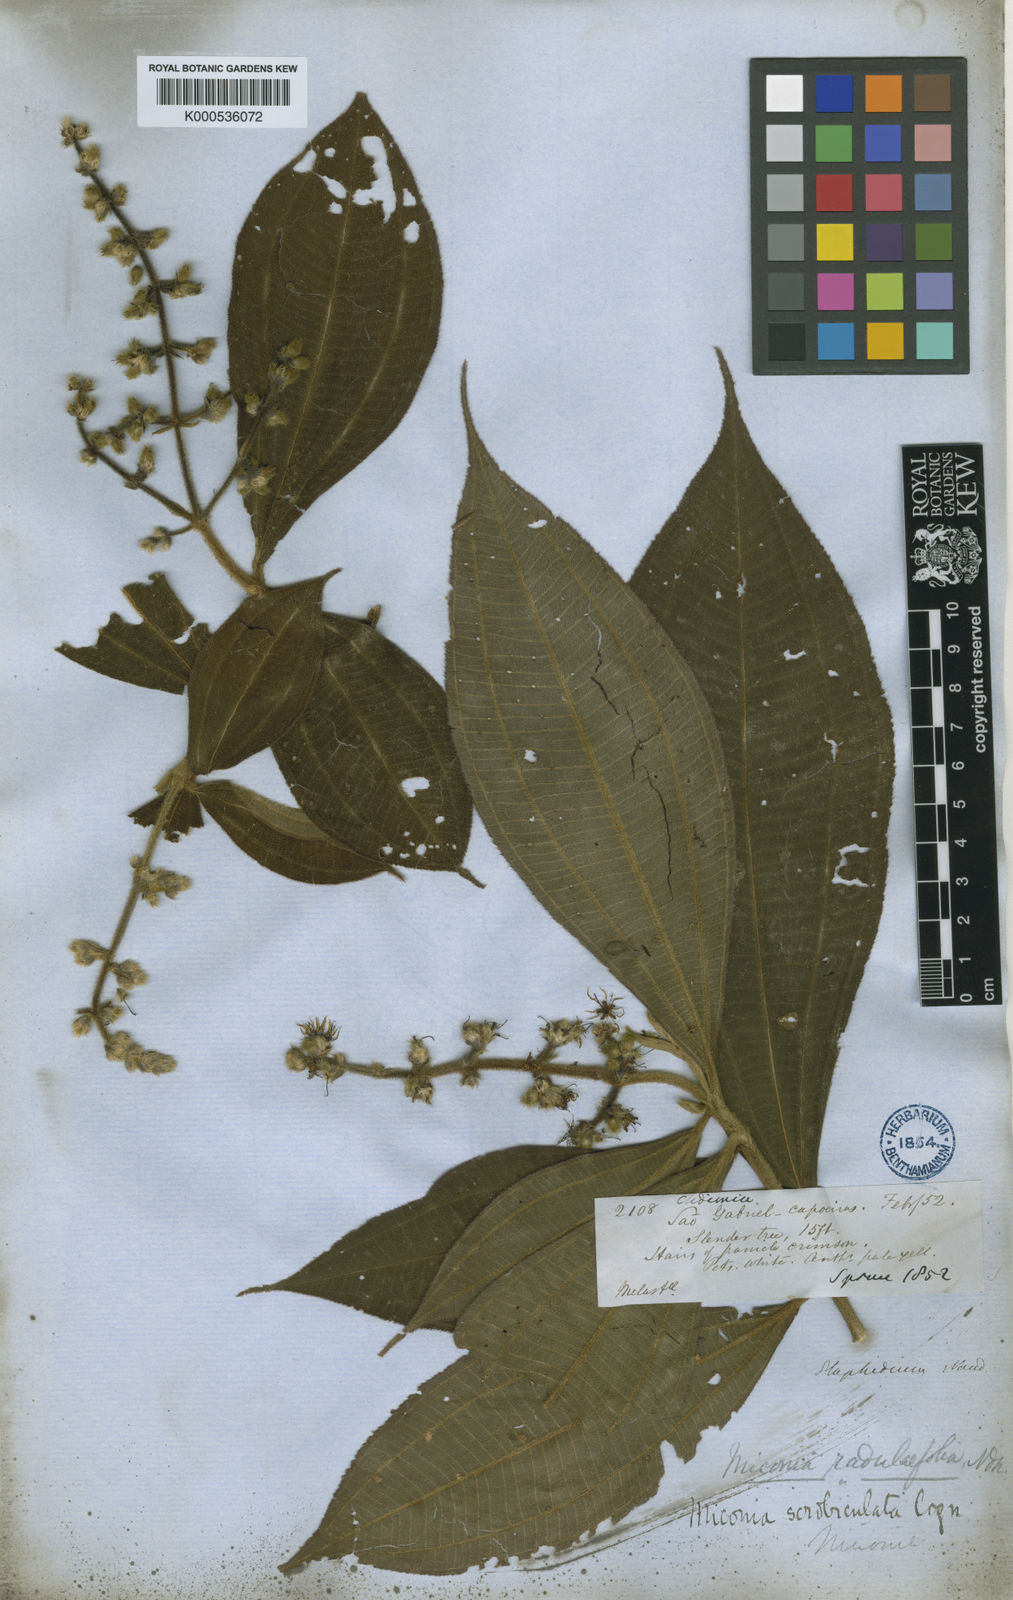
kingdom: Plantae
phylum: Tracheophyta
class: Magnoliopsida
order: Myrtales
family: Melastomataceae
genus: Miconia
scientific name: Miconia radulifolia
